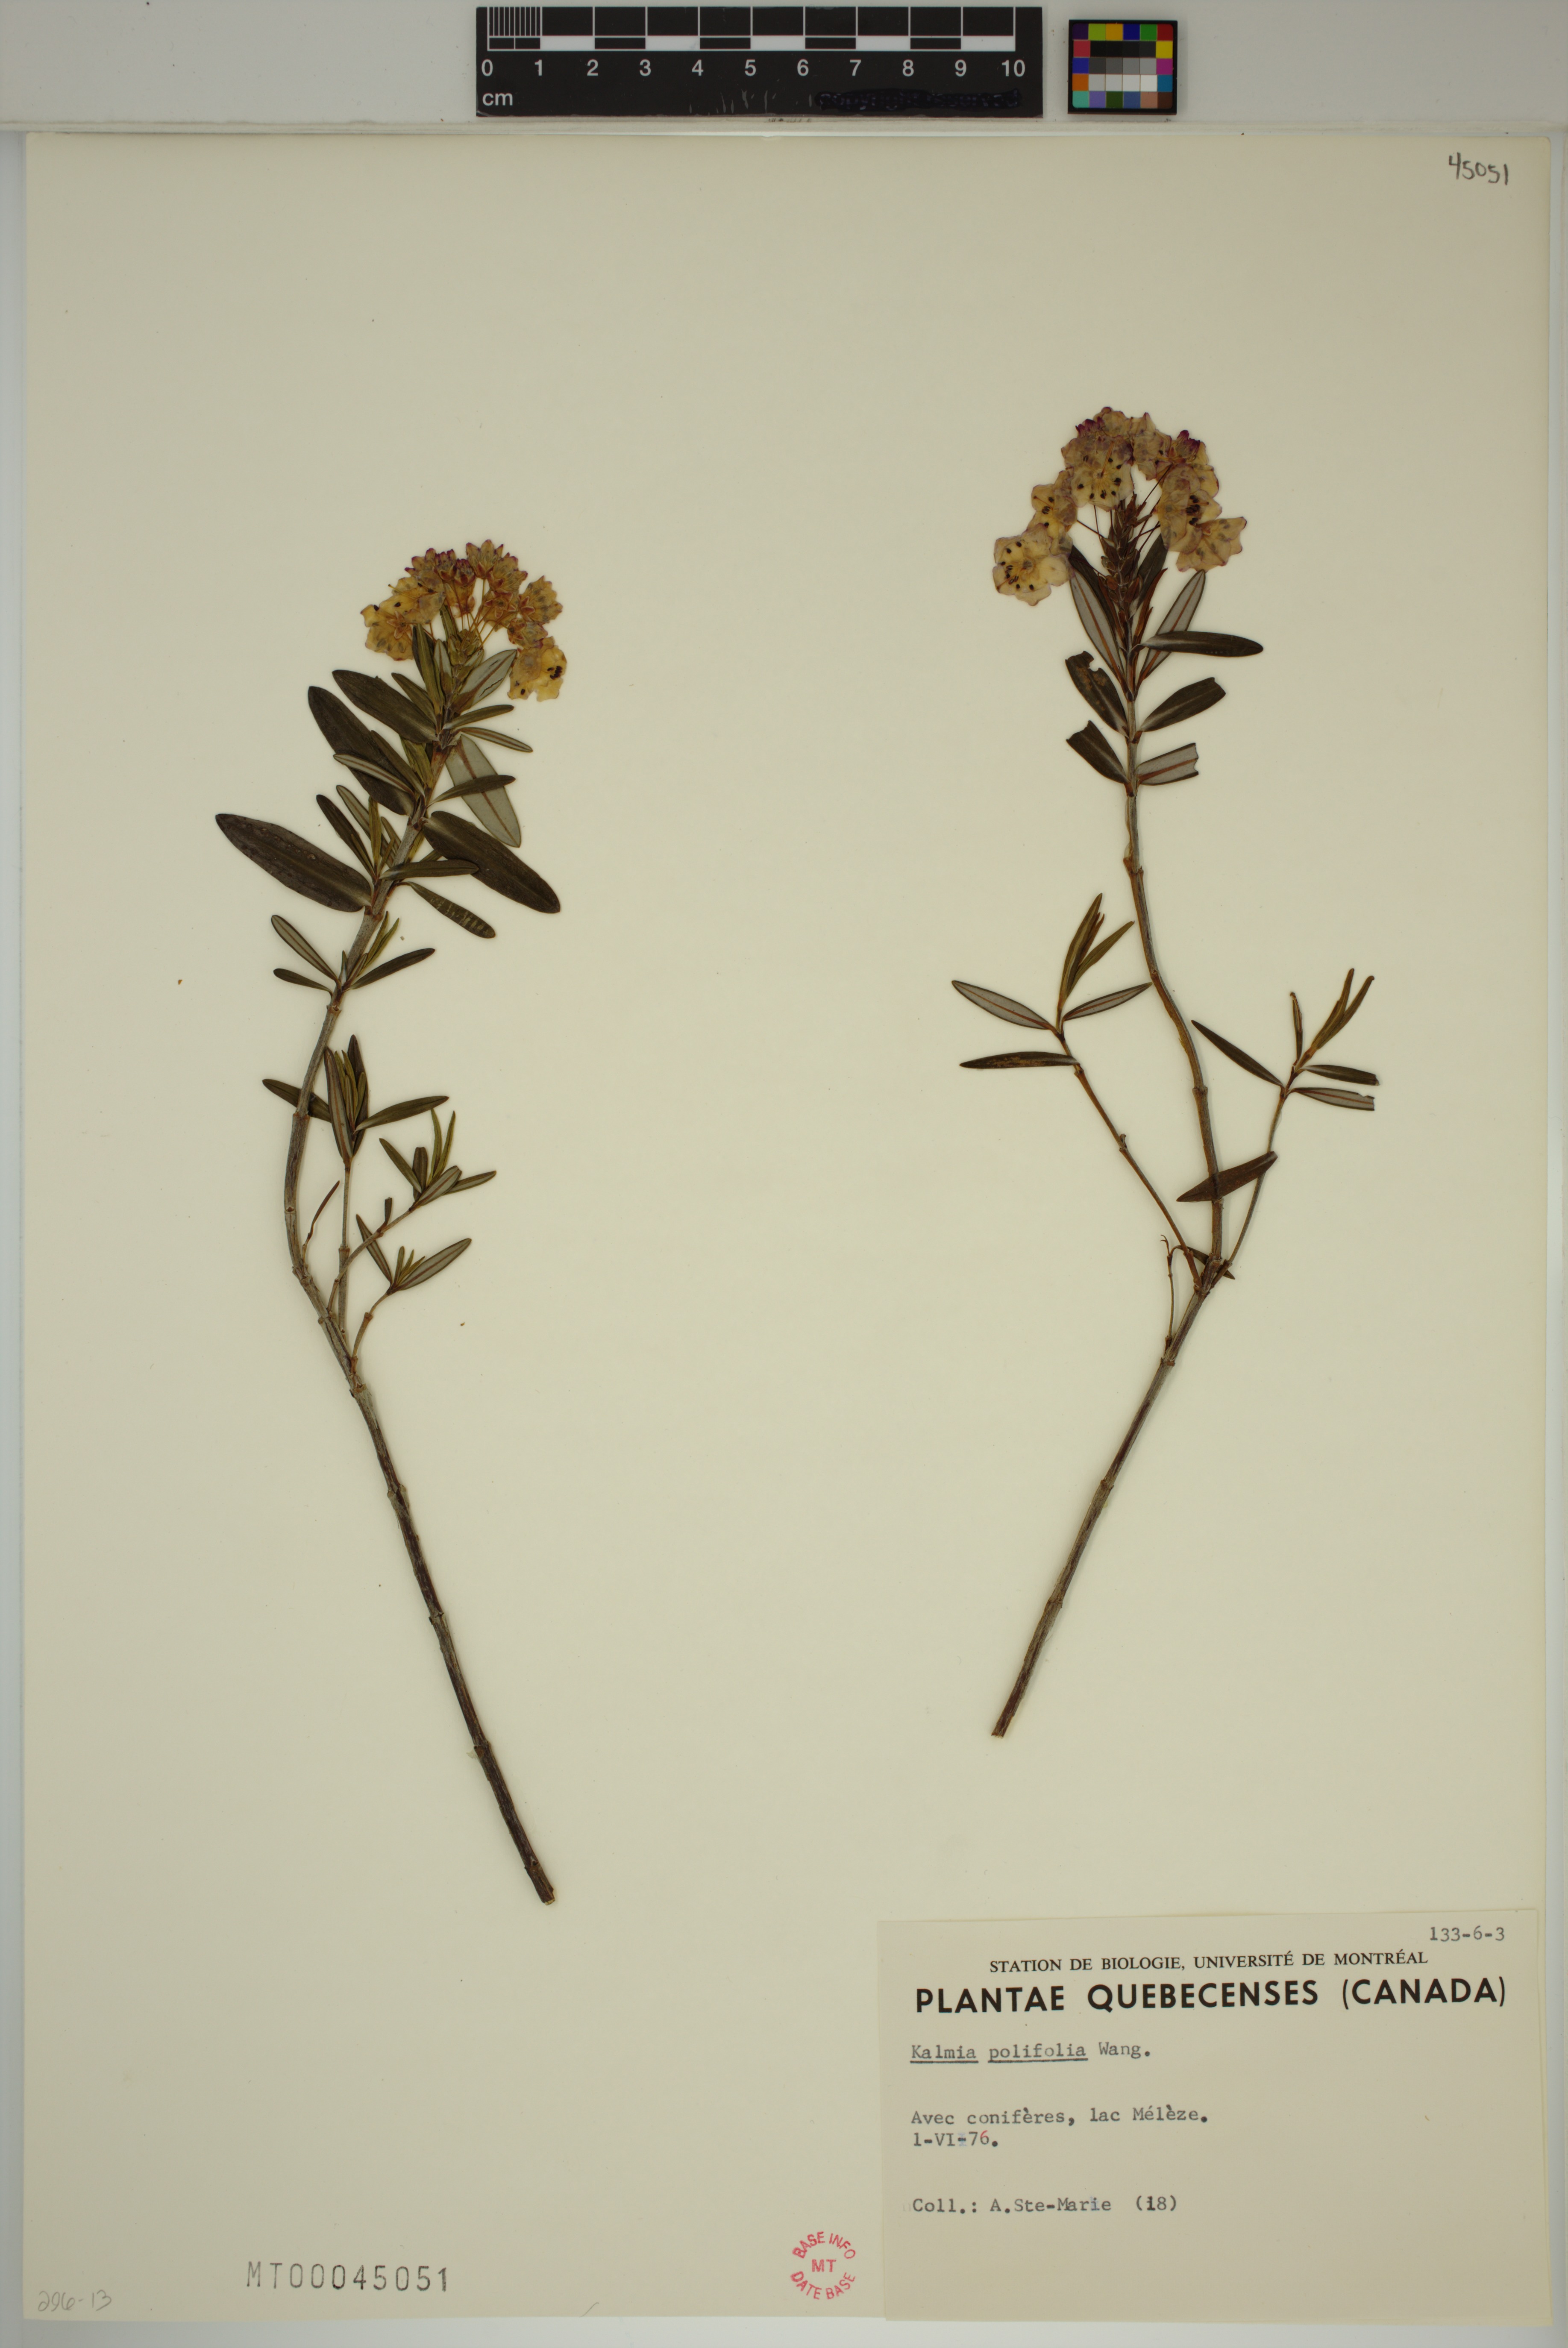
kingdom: Plantae
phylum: Tracheophyta
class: Magnoliopsida
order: Ericales
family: Ericaceae
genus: Kalmia
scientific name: Kalmia polifolia
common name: Bog-laurel
